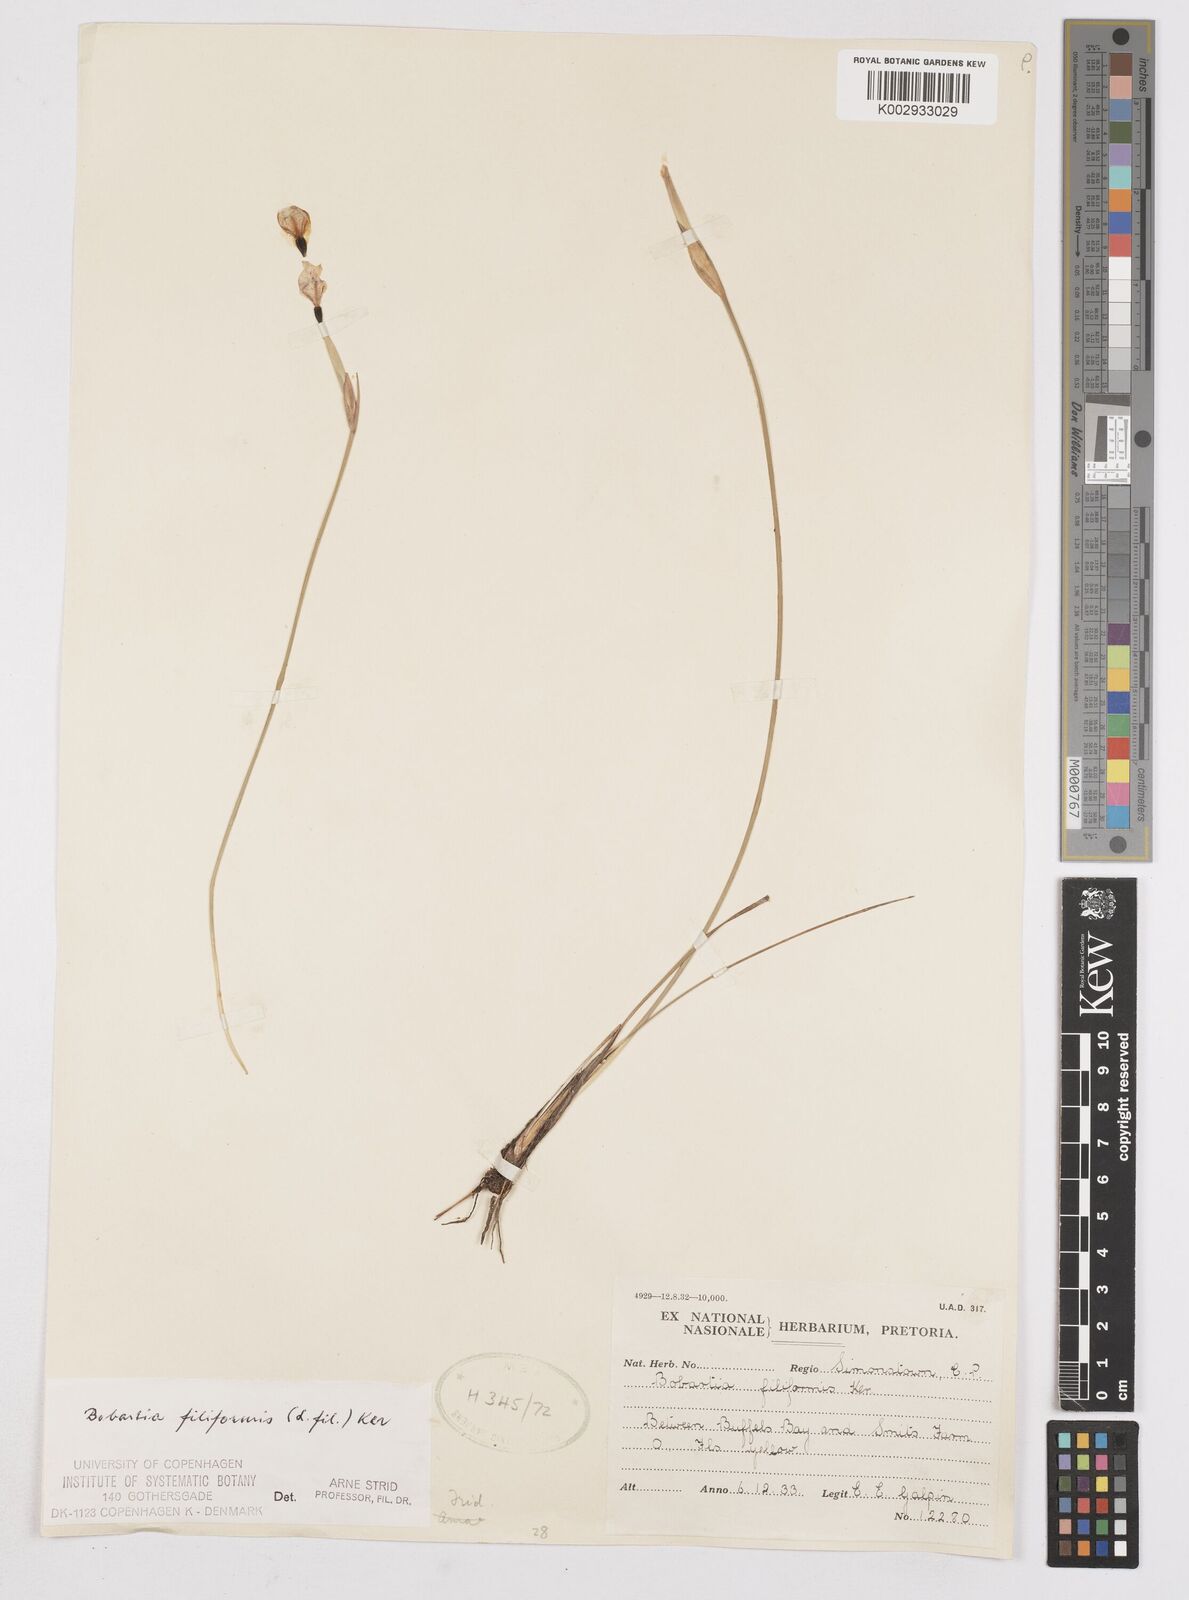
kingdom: Plantae
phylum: Tracheophyta
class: Liliopsida
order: Asparagales
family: Iridaceae
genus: Bobartia
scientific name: Bobartia filiformis
